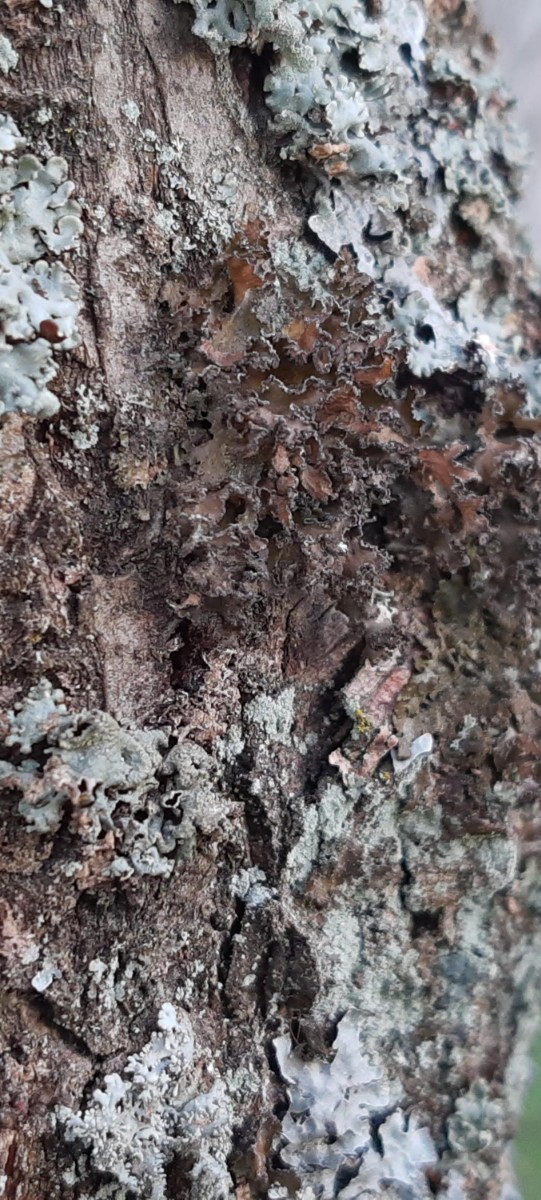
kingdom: Fungi
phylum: Ascomycota
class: Lecanoromycetes
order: Lecanorales
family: Parmeliaceae
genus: Nephromopsis
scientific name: Nephromopsis chlorophylla
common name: olivenbrun kruslav
